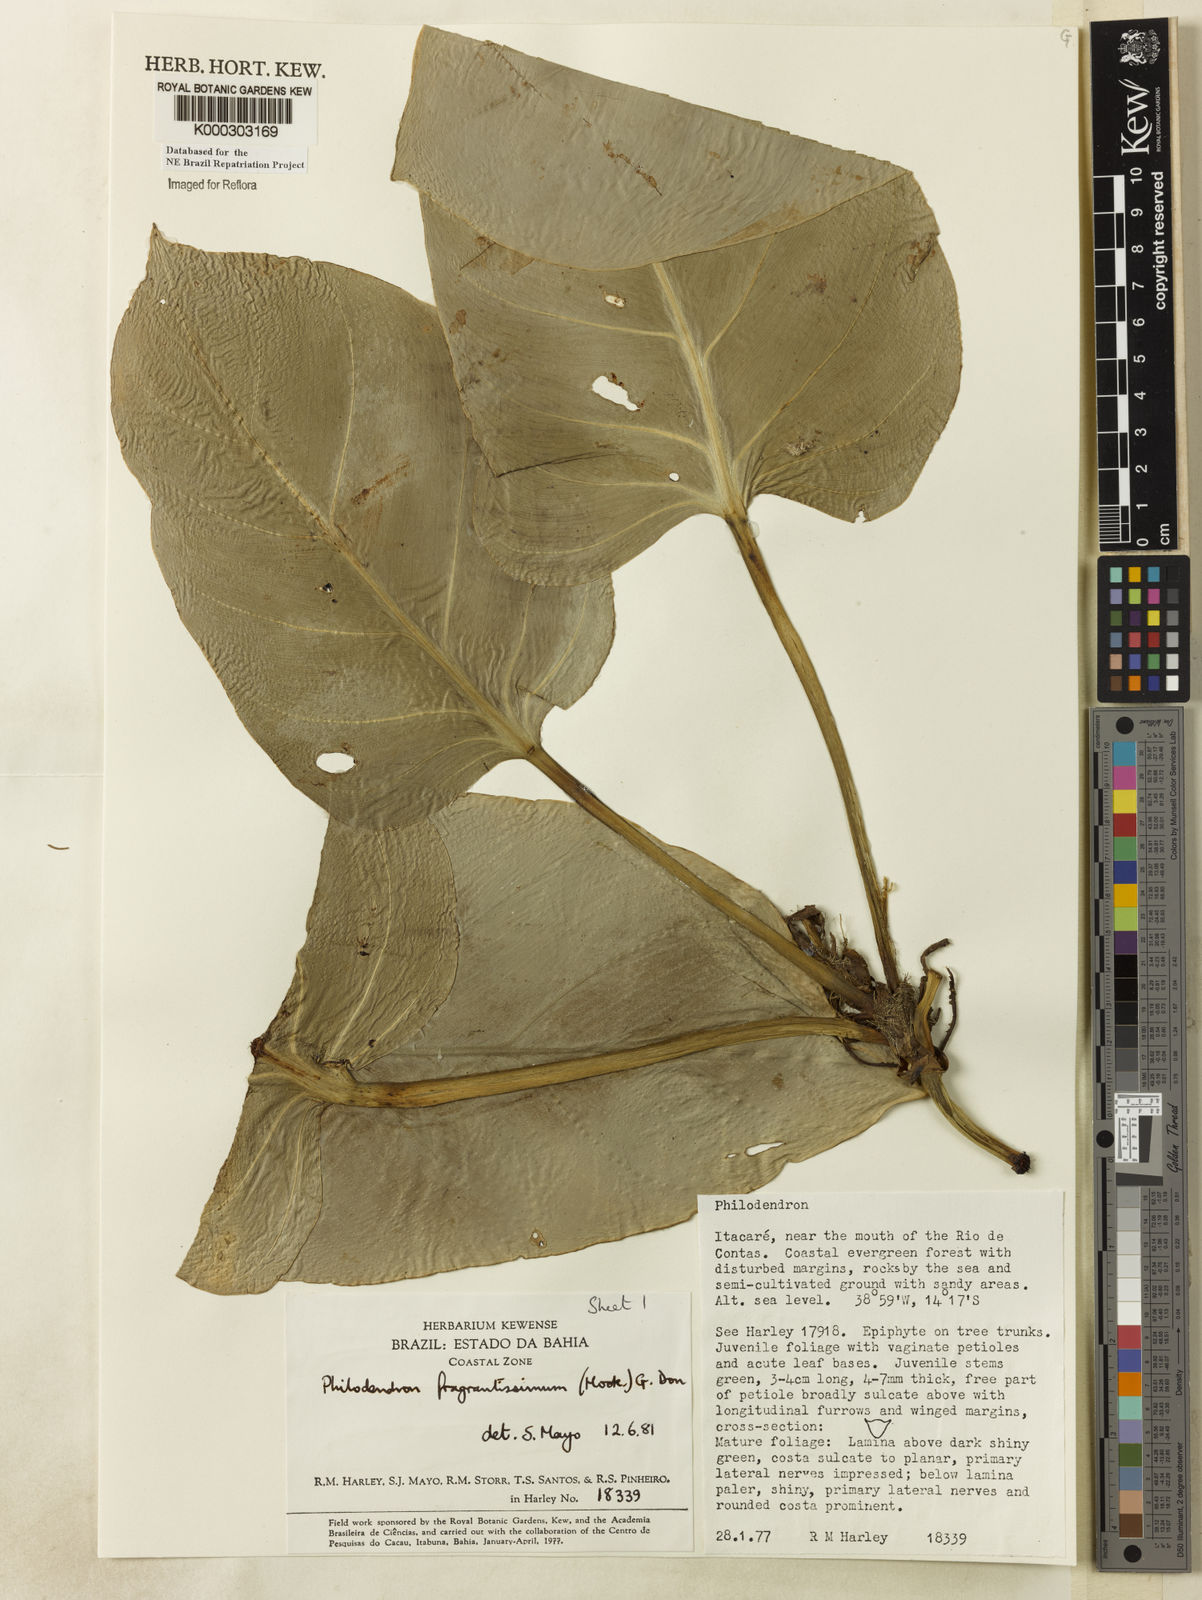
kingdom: Plantae
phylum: Tracheophyta
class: Liliopsida
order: Alismatales
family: Araceae
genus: Philodendron
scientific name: Philodendron fragrantissimum
